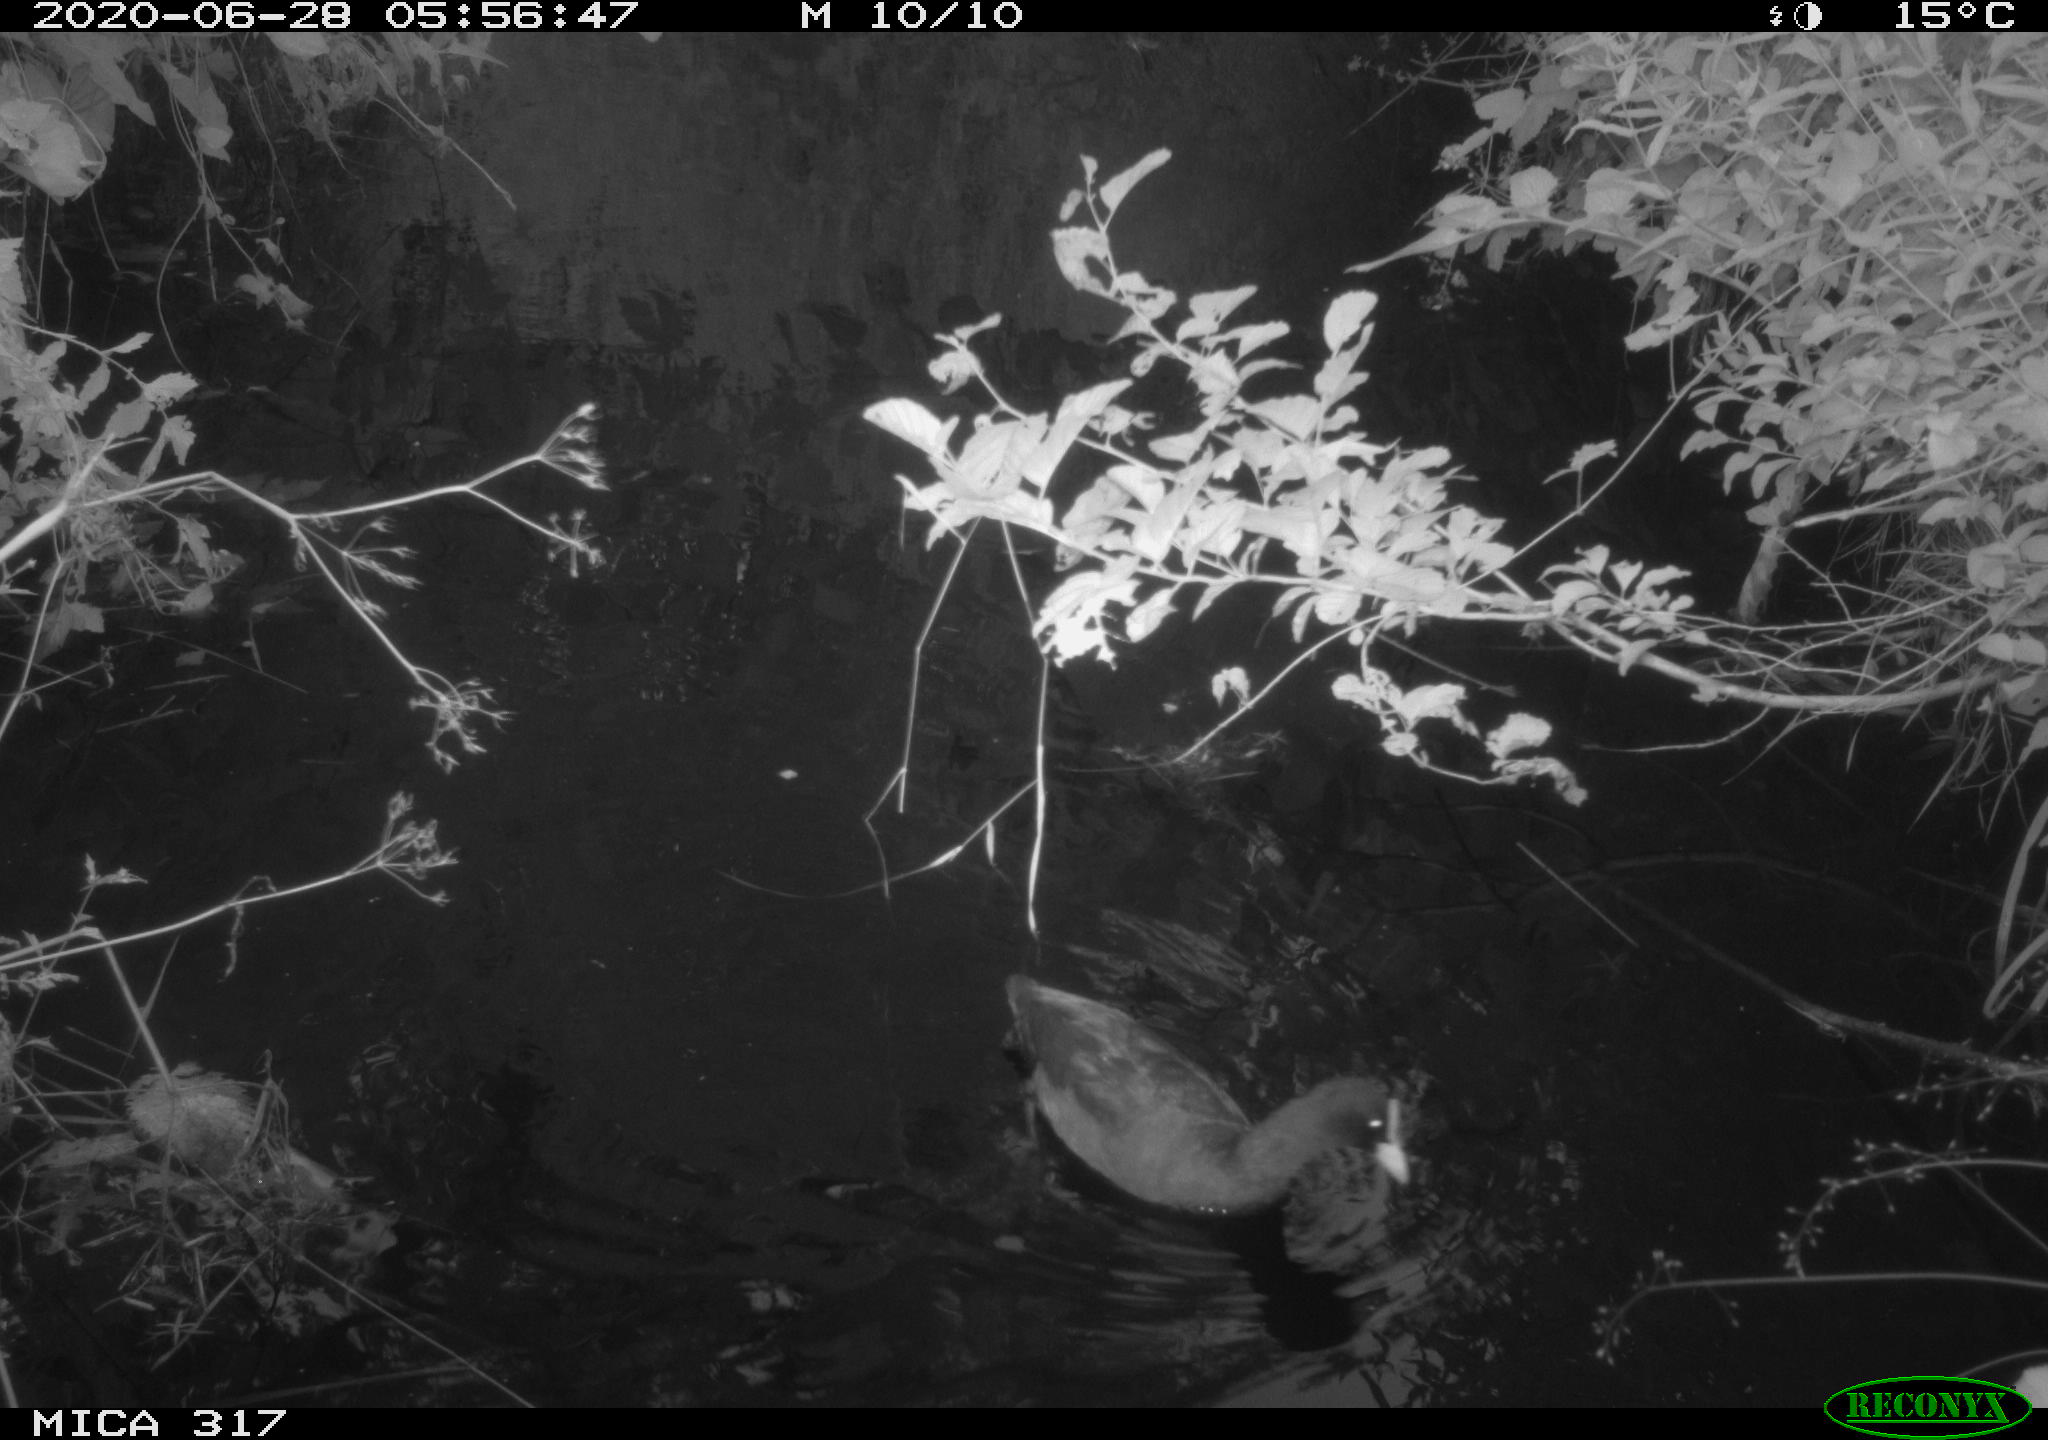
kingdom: Animalia
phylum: Chordata
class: Aves
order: Gruiformes
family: Rallidae
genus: Fulica
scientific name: Fulica atra
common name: Eurasian coot
